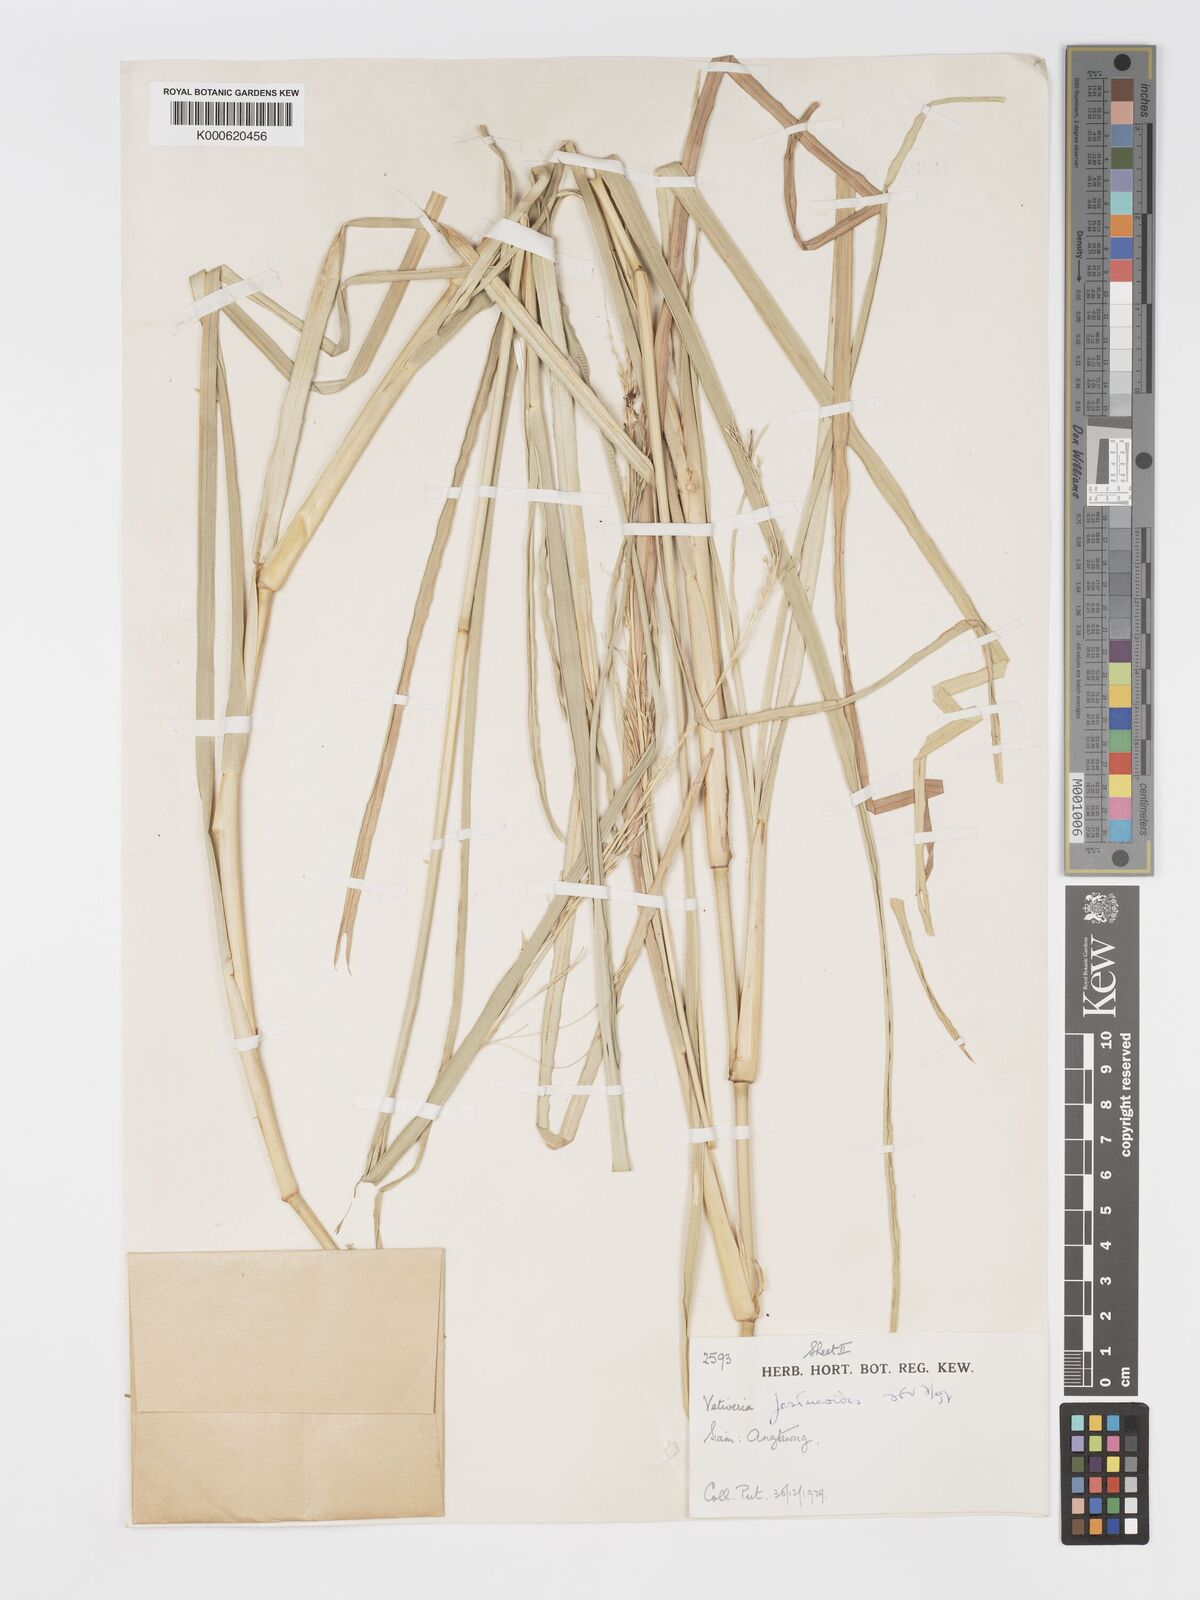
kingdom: Plantae
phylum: Tracheophyta
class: Liliopsida
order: Poales
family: Poaceae
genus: Chrysopogon
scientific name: Chrysopogon festucoides
